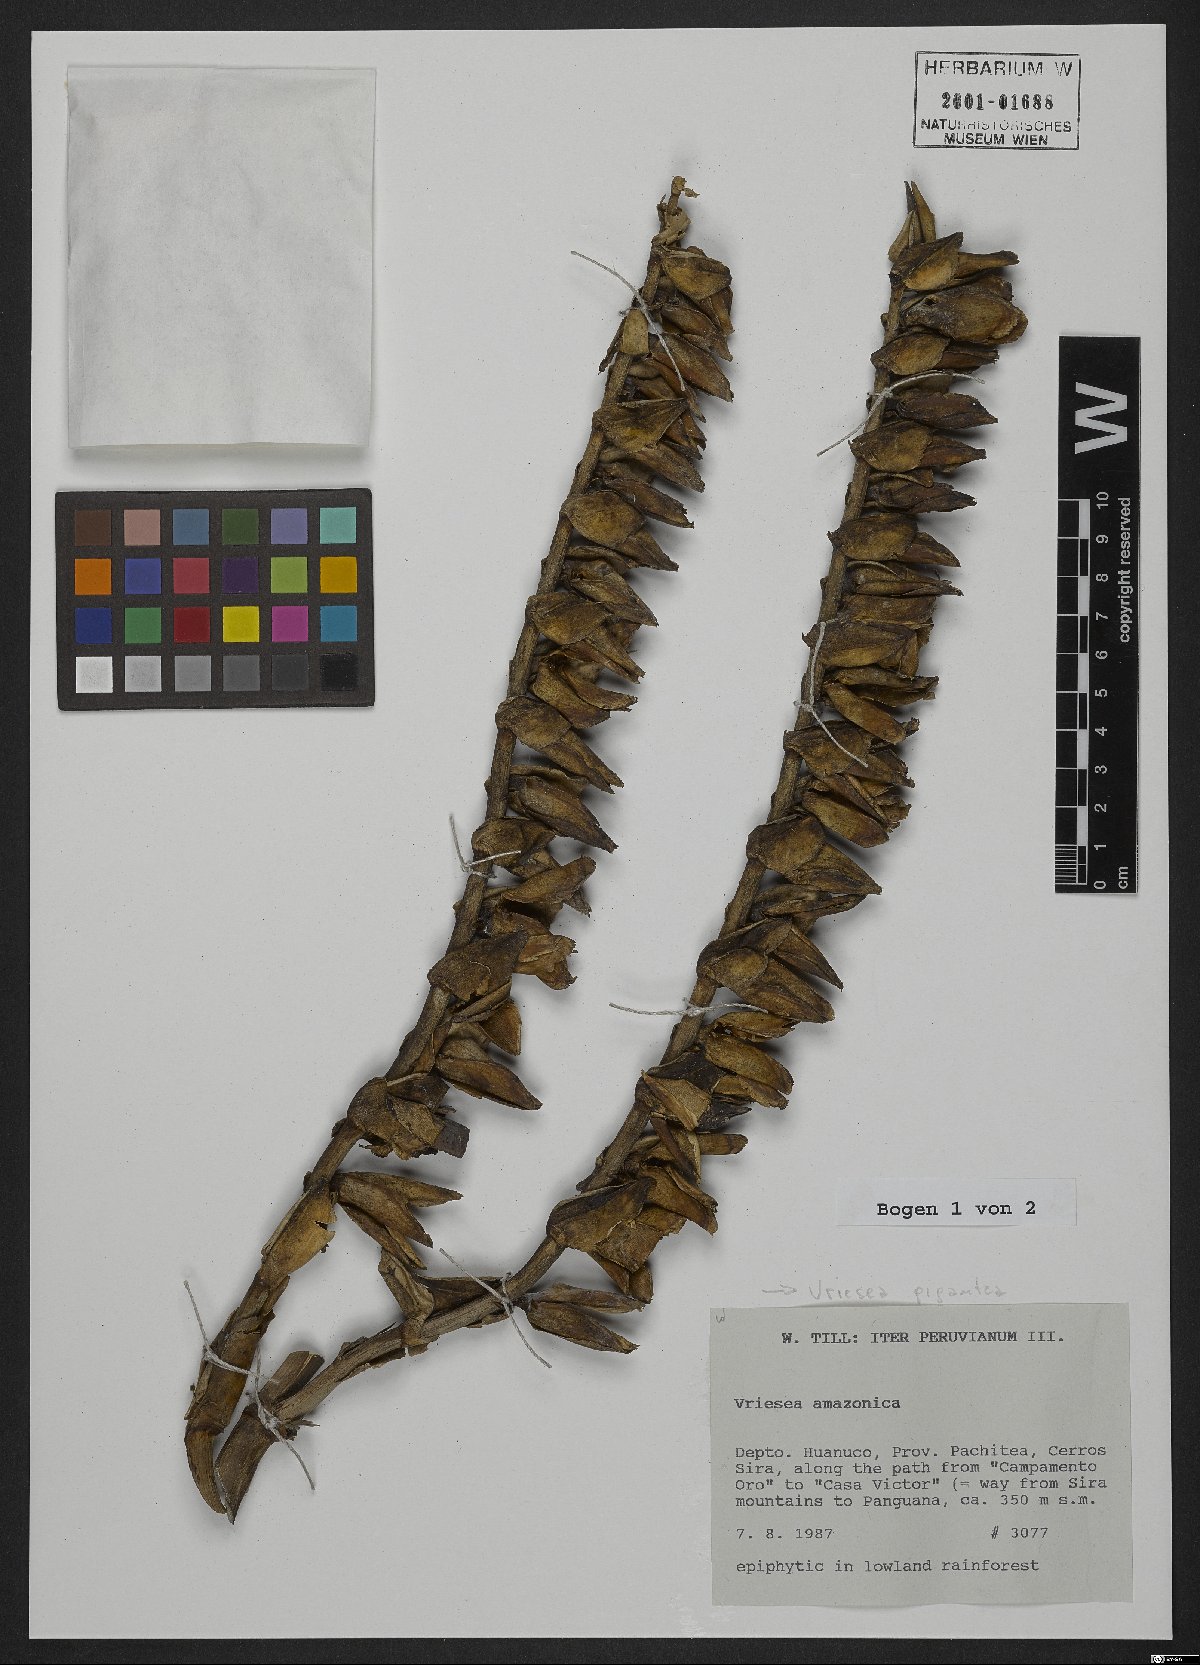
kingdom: Plantae
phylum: Tracheophyta
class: Liliopsida
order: Poales
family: Bromeliaceae
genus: Vriesea
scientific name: Vriesea gigantea
